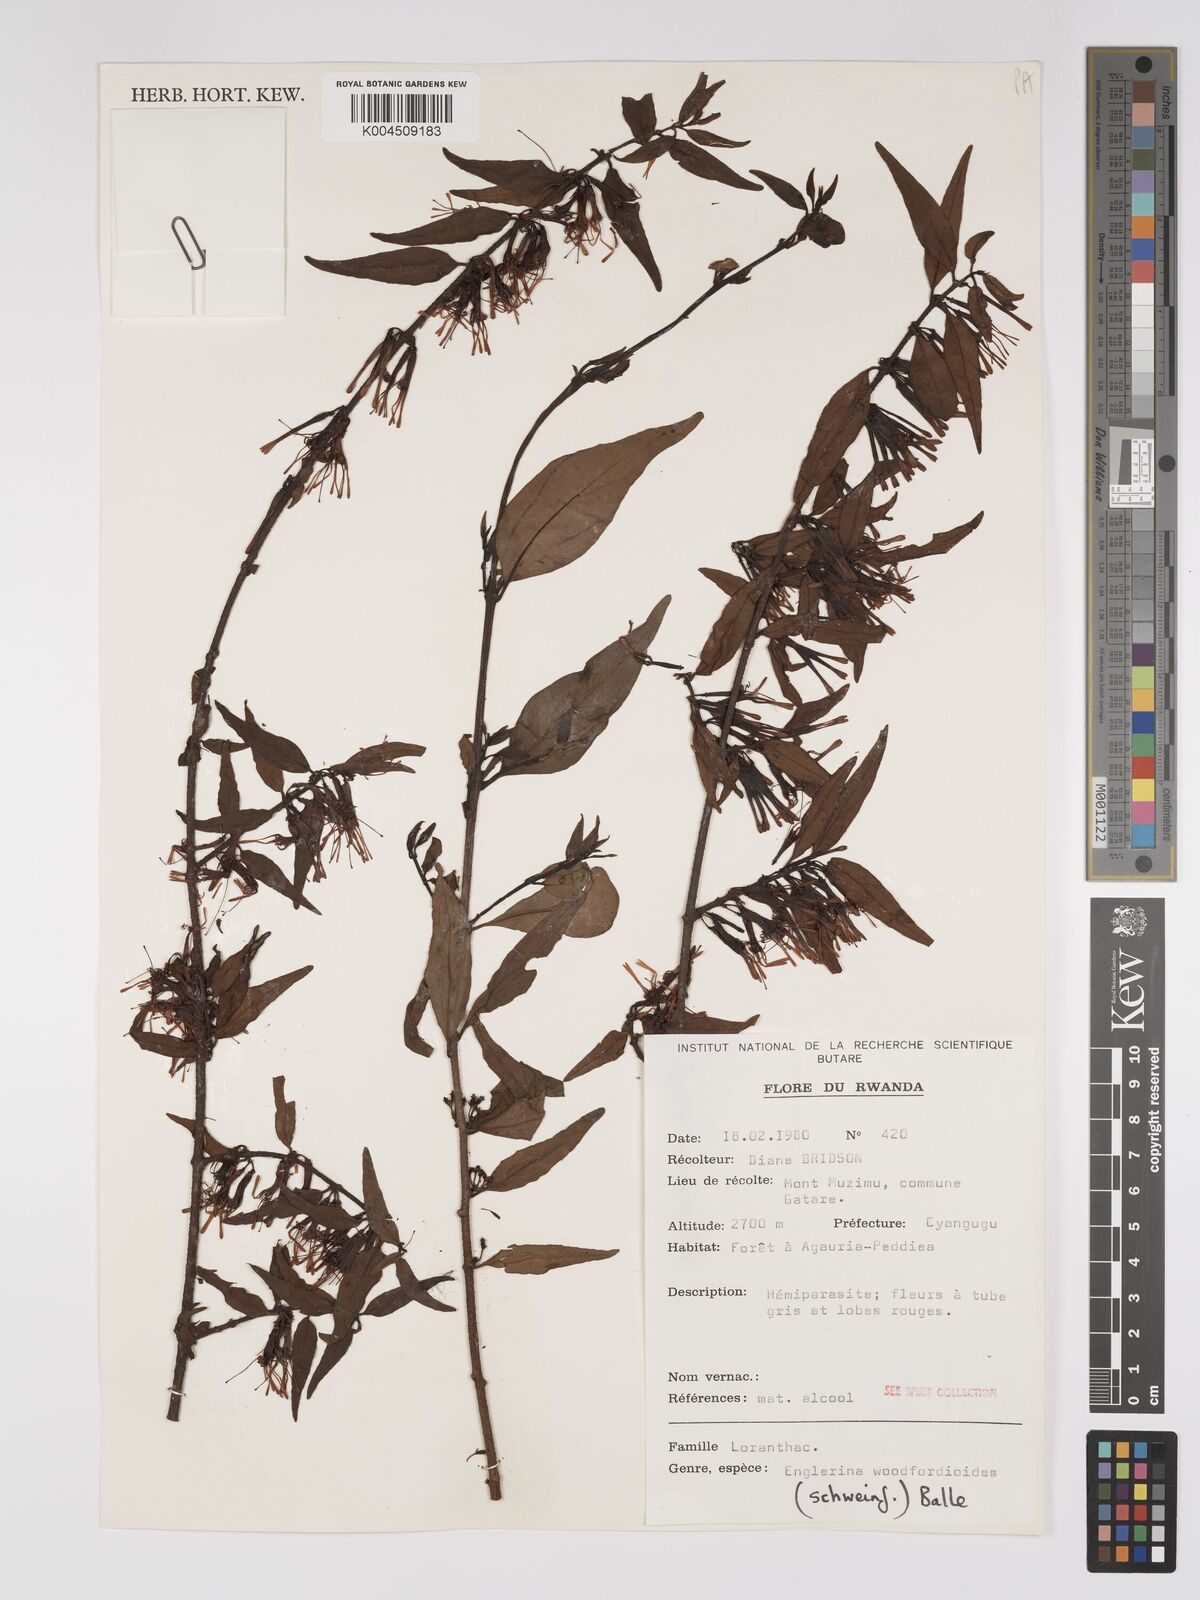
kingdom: Plantae
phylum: Tracheophyta
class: Magnoliopsida
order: Santalales
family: Loranthaceae
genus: Englerina
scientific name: Englerina woodfordioides
